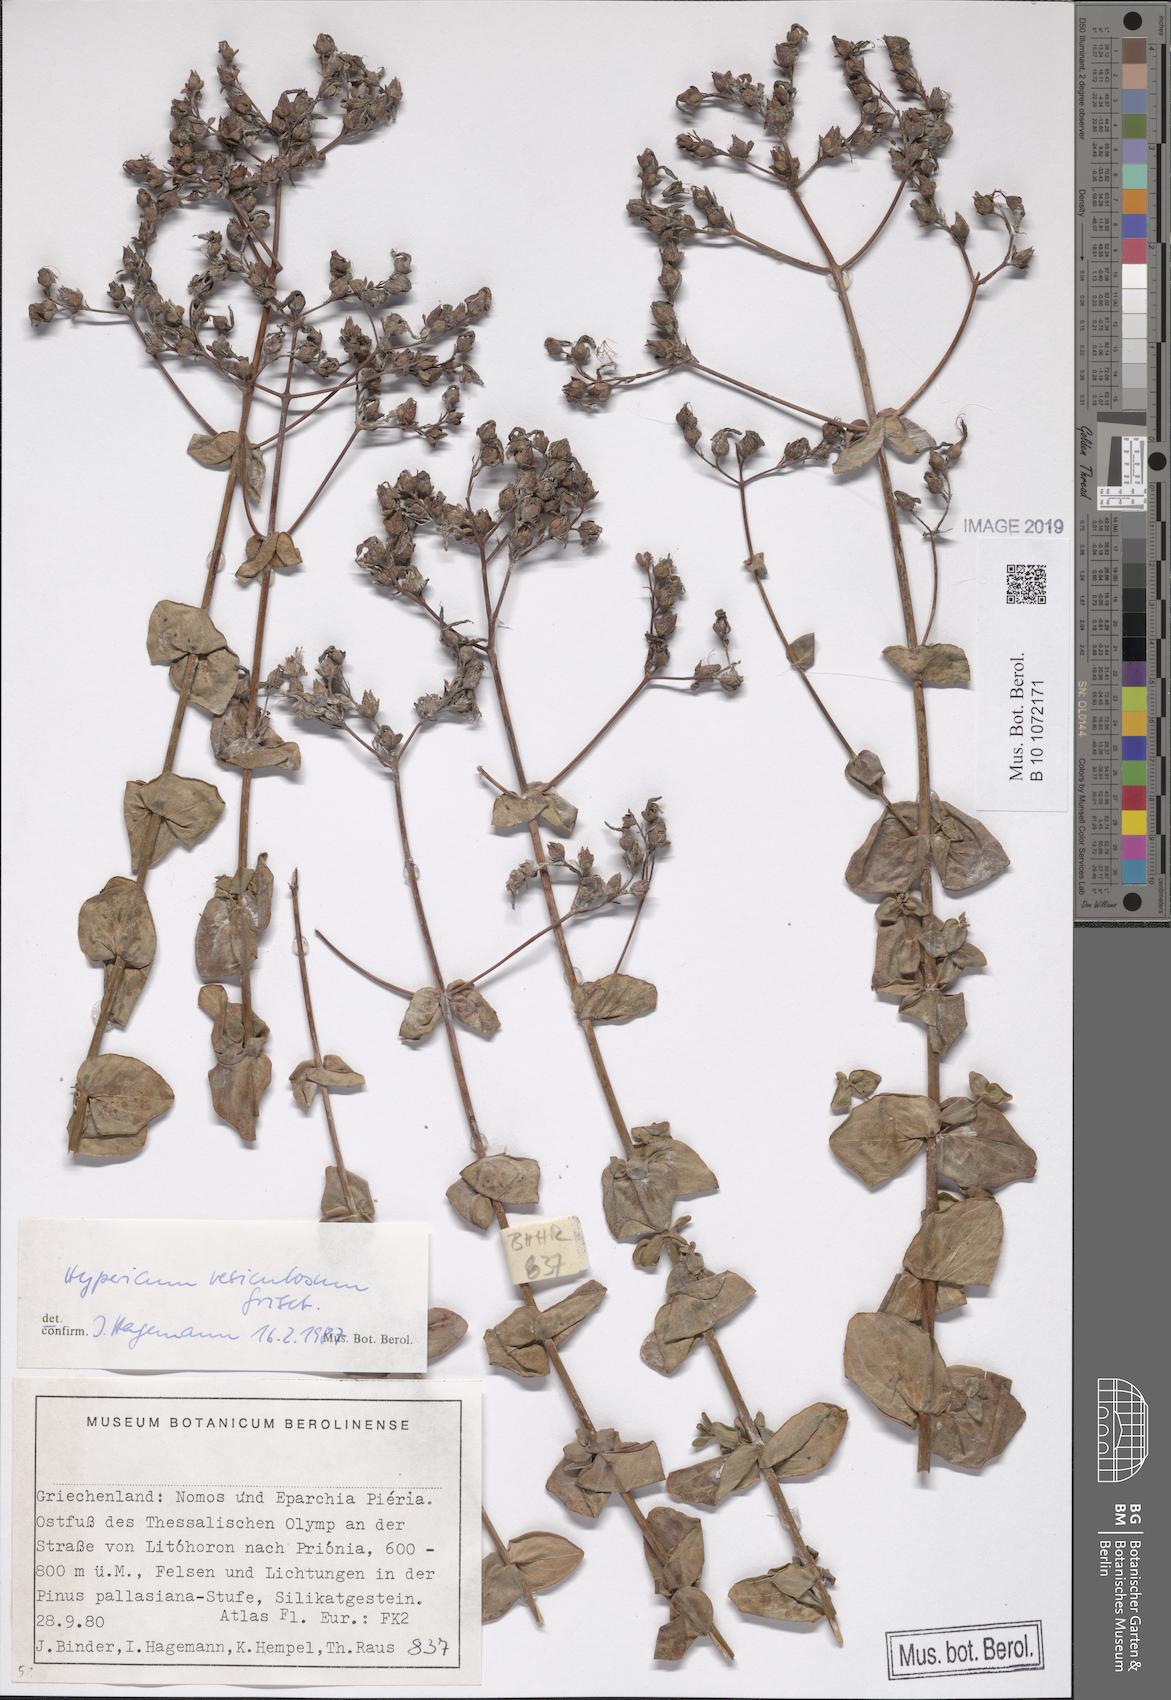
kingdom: Plantae
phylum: Tracheophyta
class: Magnoliopsida
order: Malpighiales
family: Hypericaceae
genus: Hypericum
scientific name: Hypericum vesiculosum
